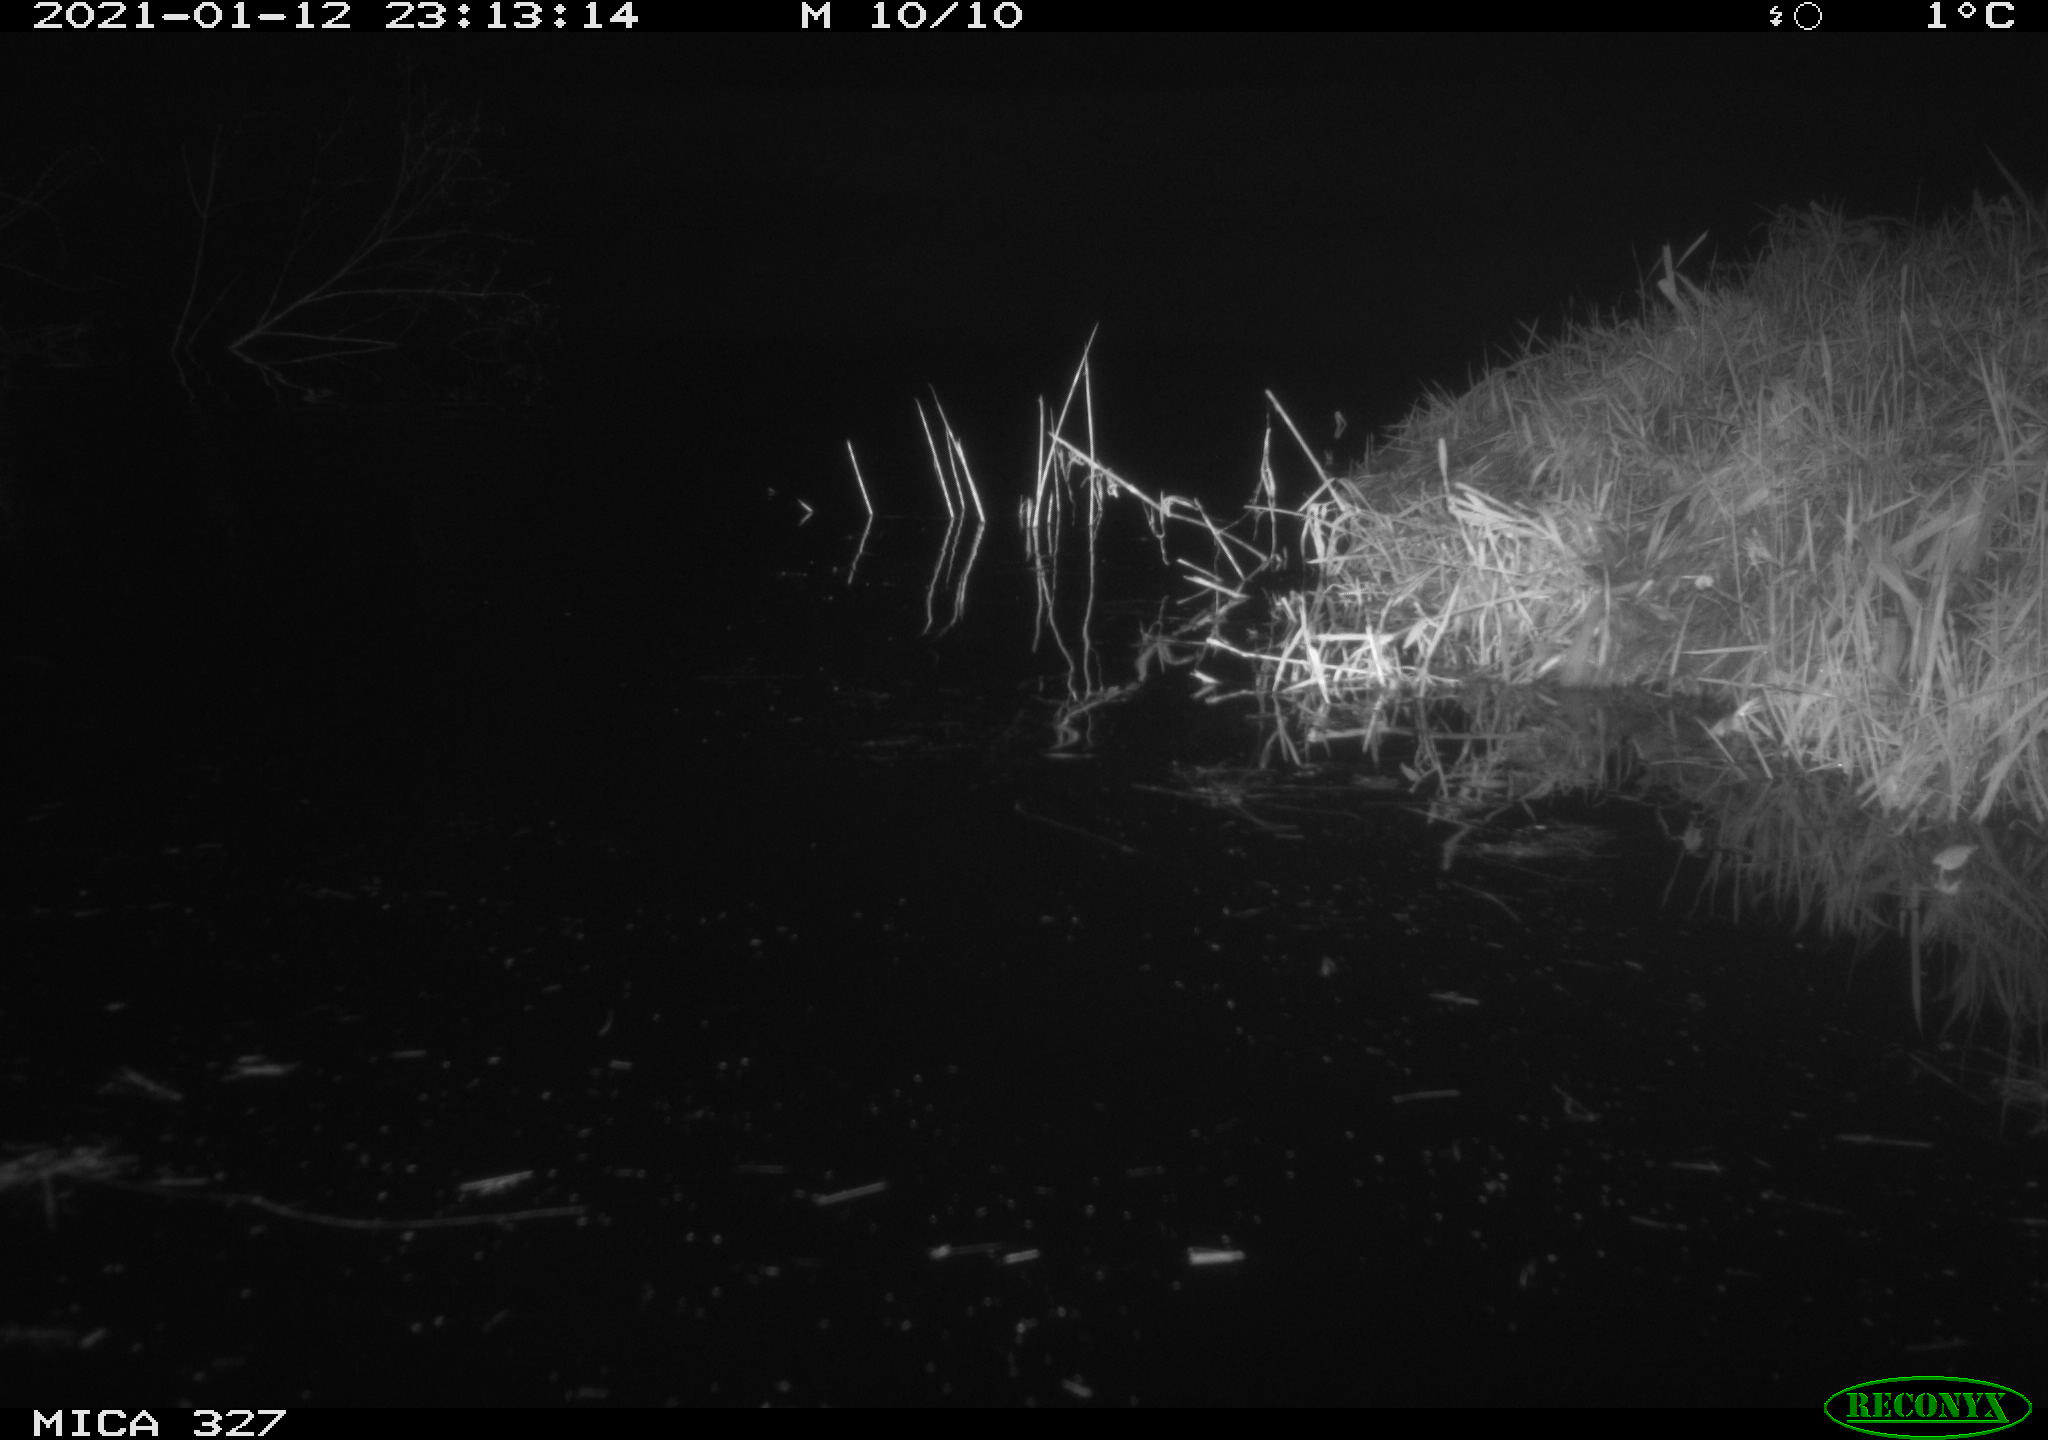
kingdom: Animalia
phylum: Chordata
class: Mammalia
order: Rodentia
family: Myocastoridae
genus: Myocastor
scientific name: Myocastor coypus
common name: Coypu
